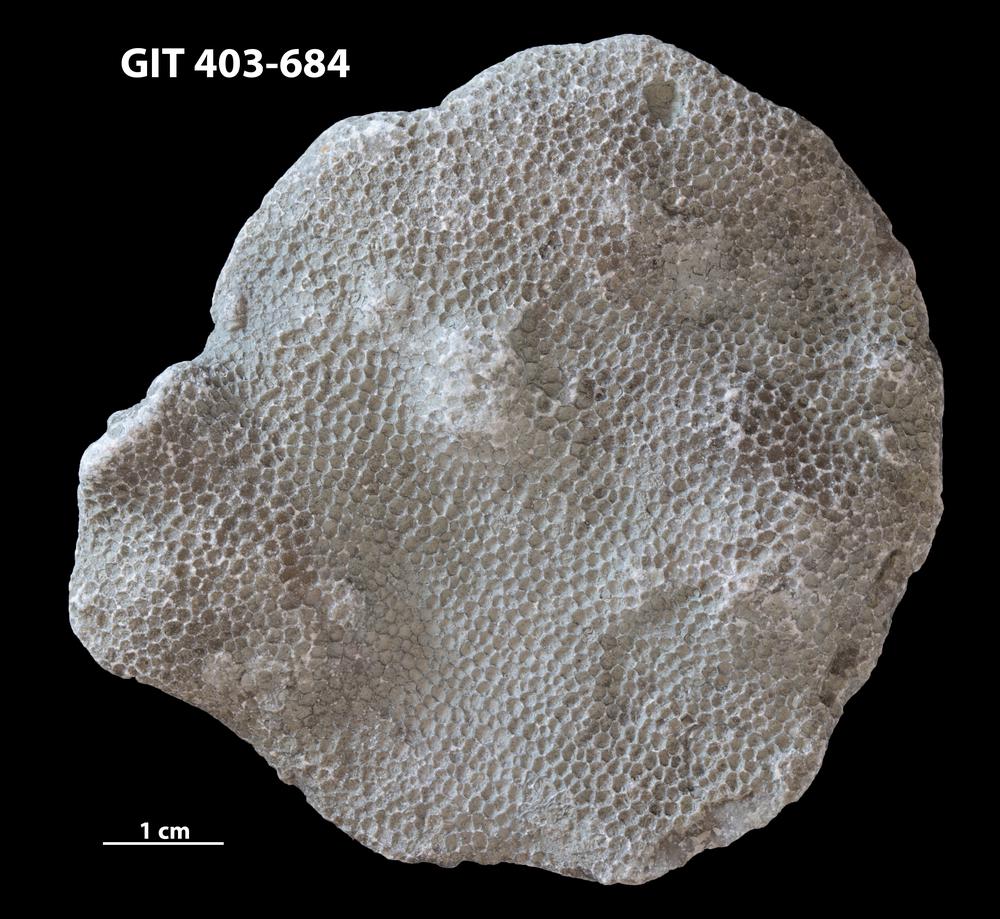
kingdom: Animalia
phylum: Cnidaria
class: Anthozoa
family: Favositidae
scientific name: Favositidae
